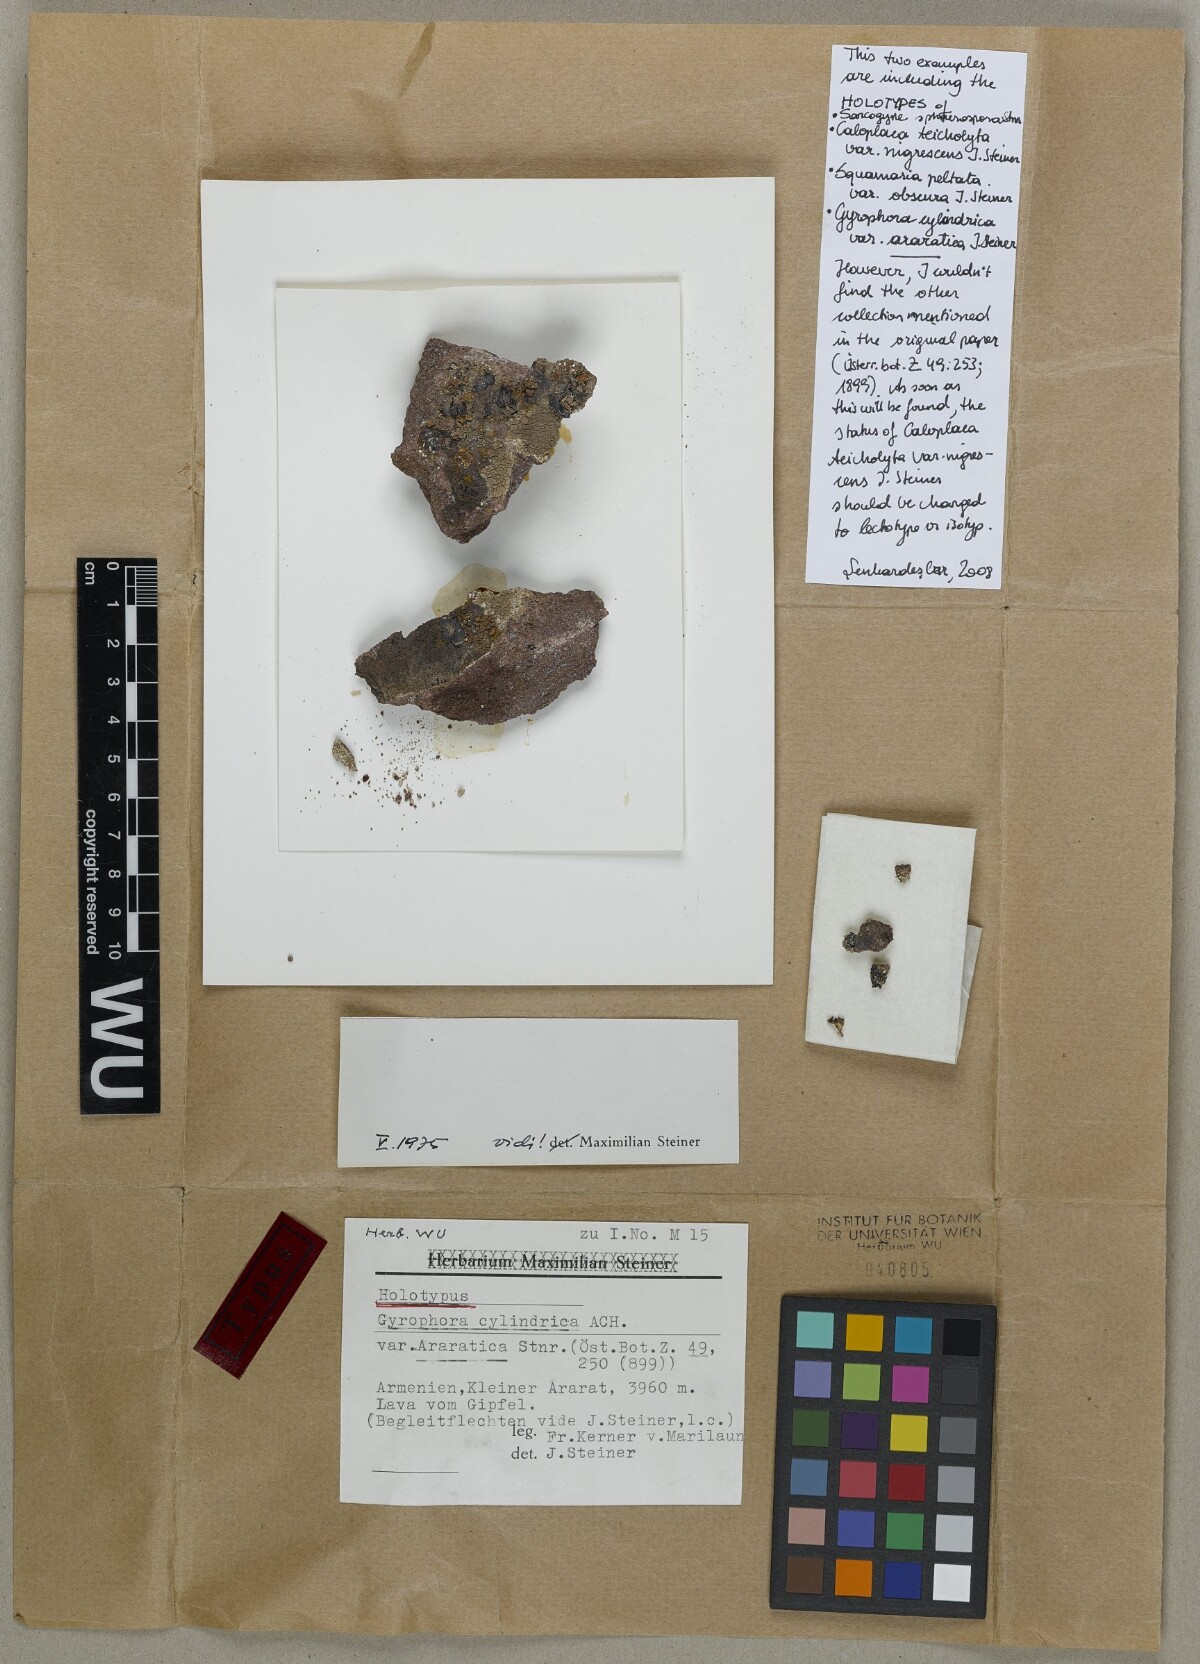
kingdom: Fungi
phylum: Ascomycota
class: Lecanoromycetes
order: Umbilicariales
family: Umbilicariaceae
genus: Umbilicaria
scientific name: Umbilicaria cylindrica
